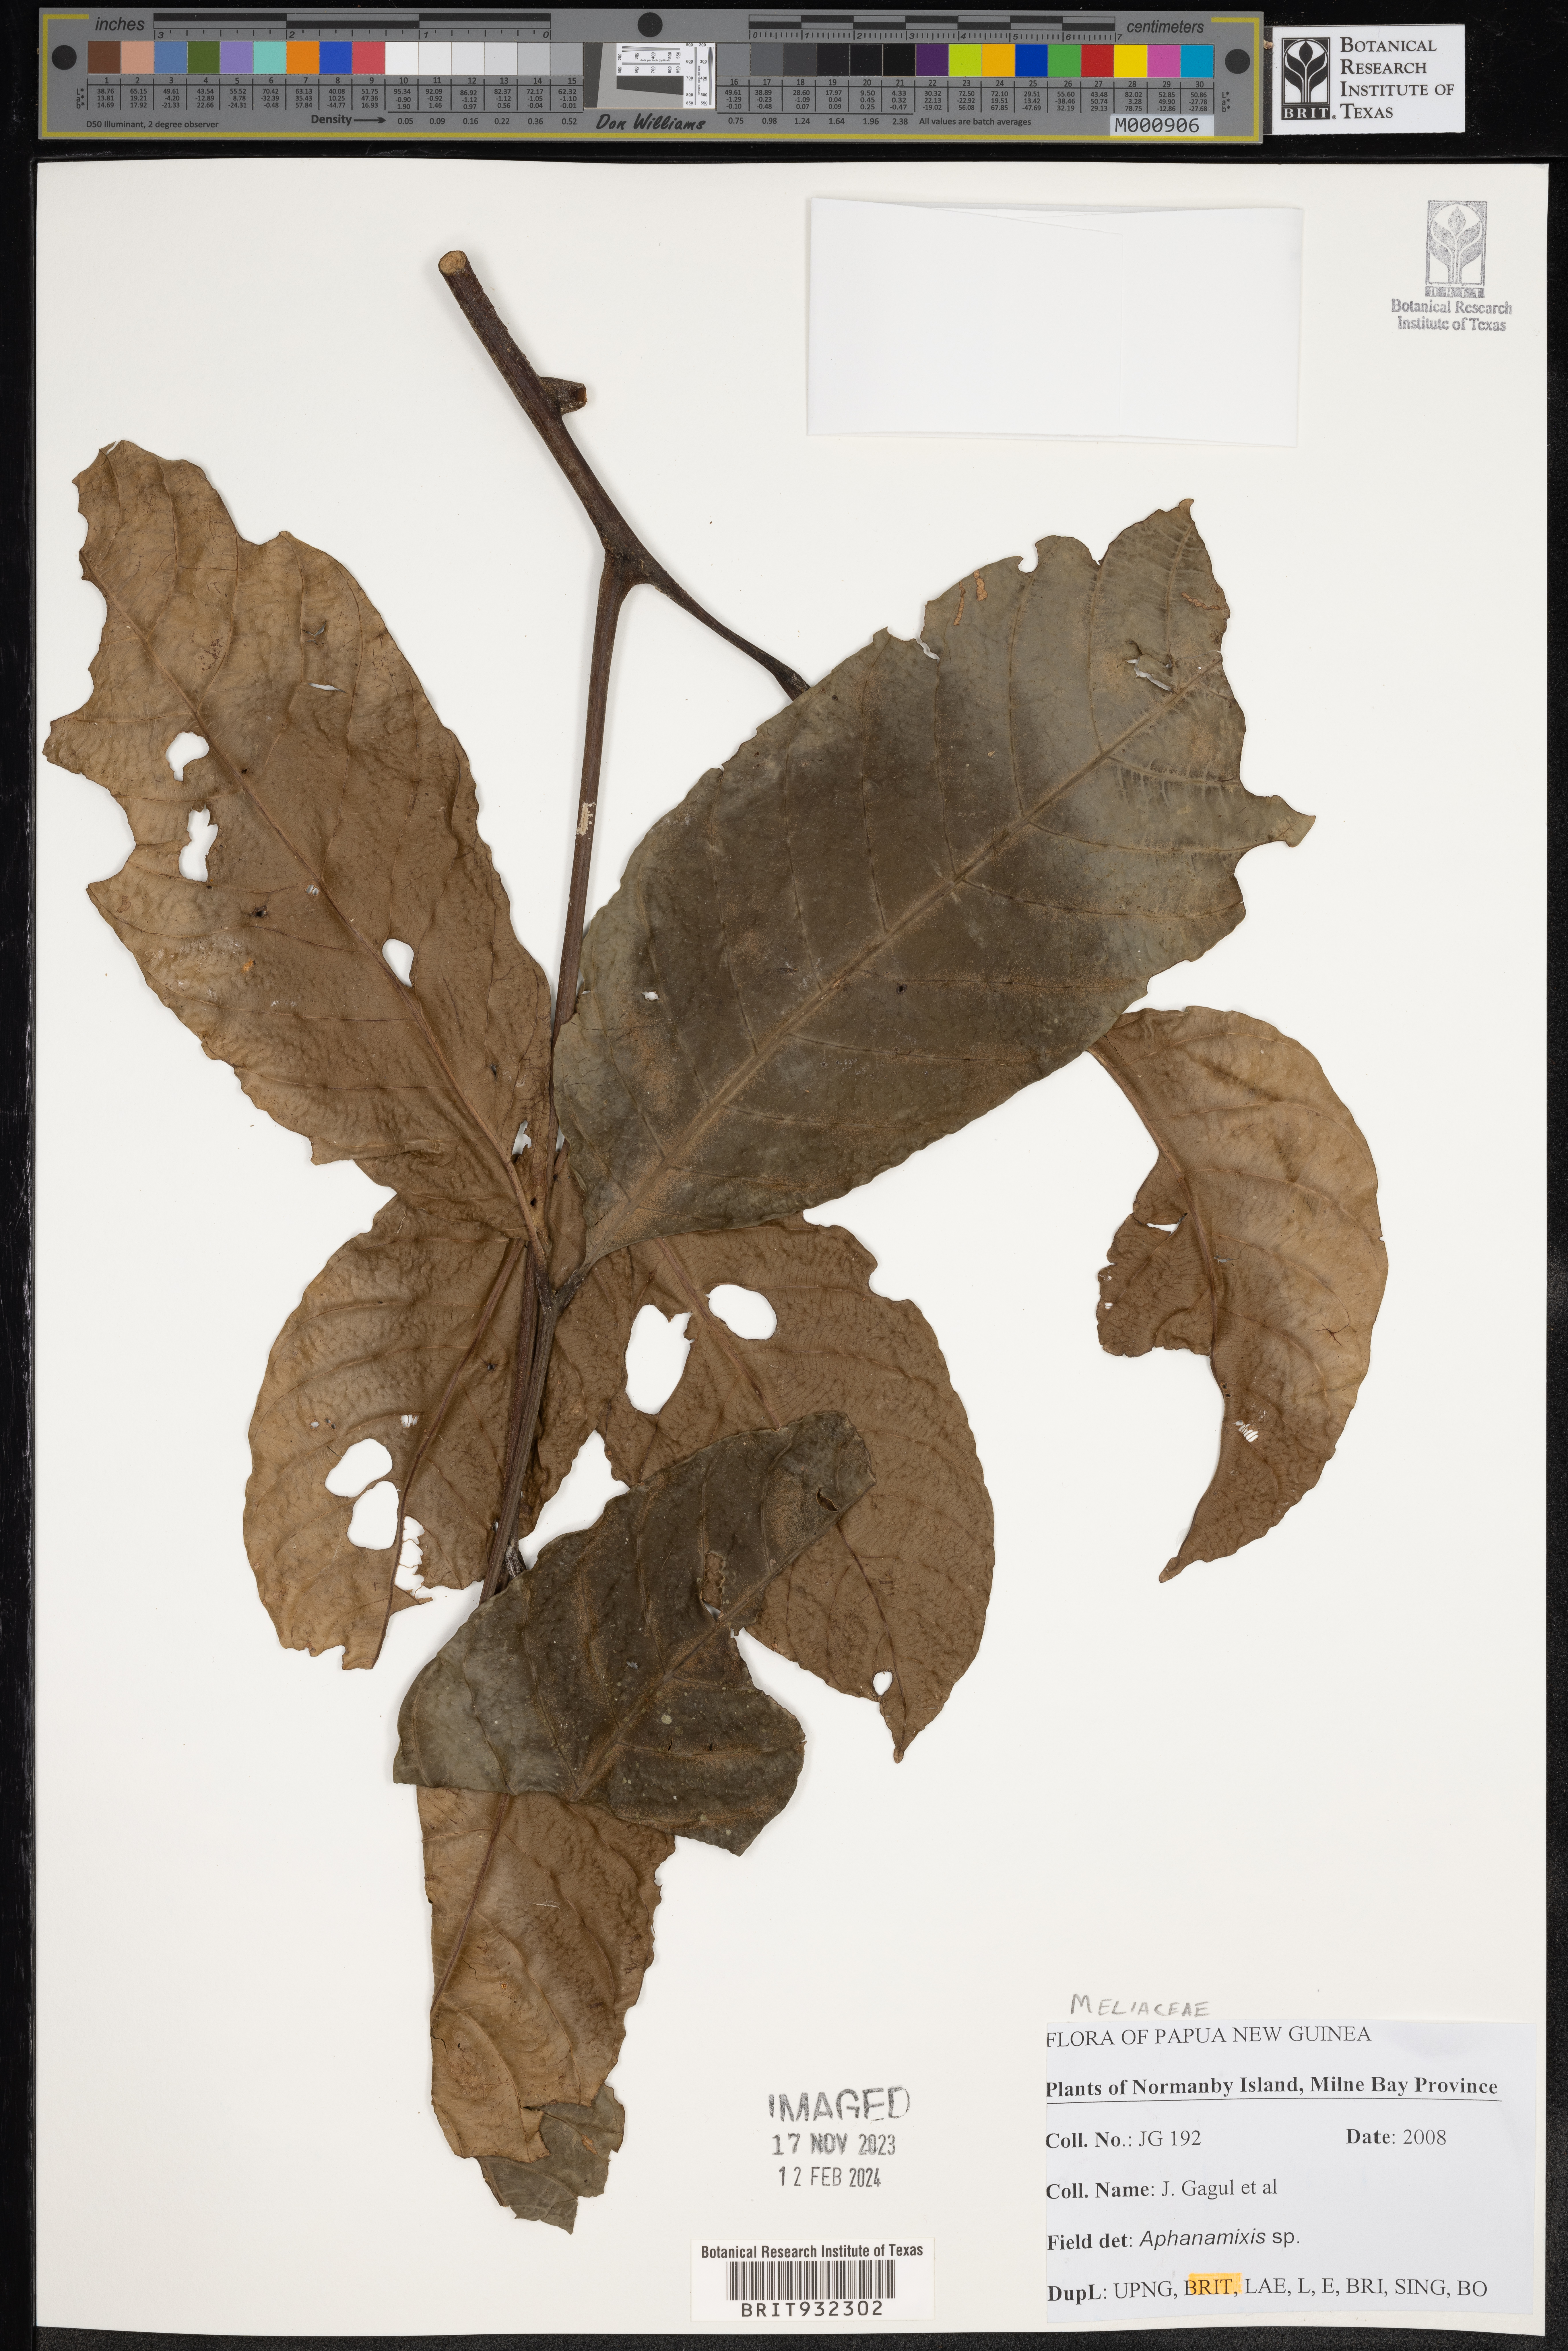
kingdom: Plantae
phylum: Tracheophyta
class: Magnoliopsida
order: Sapindales
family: Meliaceae
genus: Aphanamixis
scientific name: Aphanamixis
